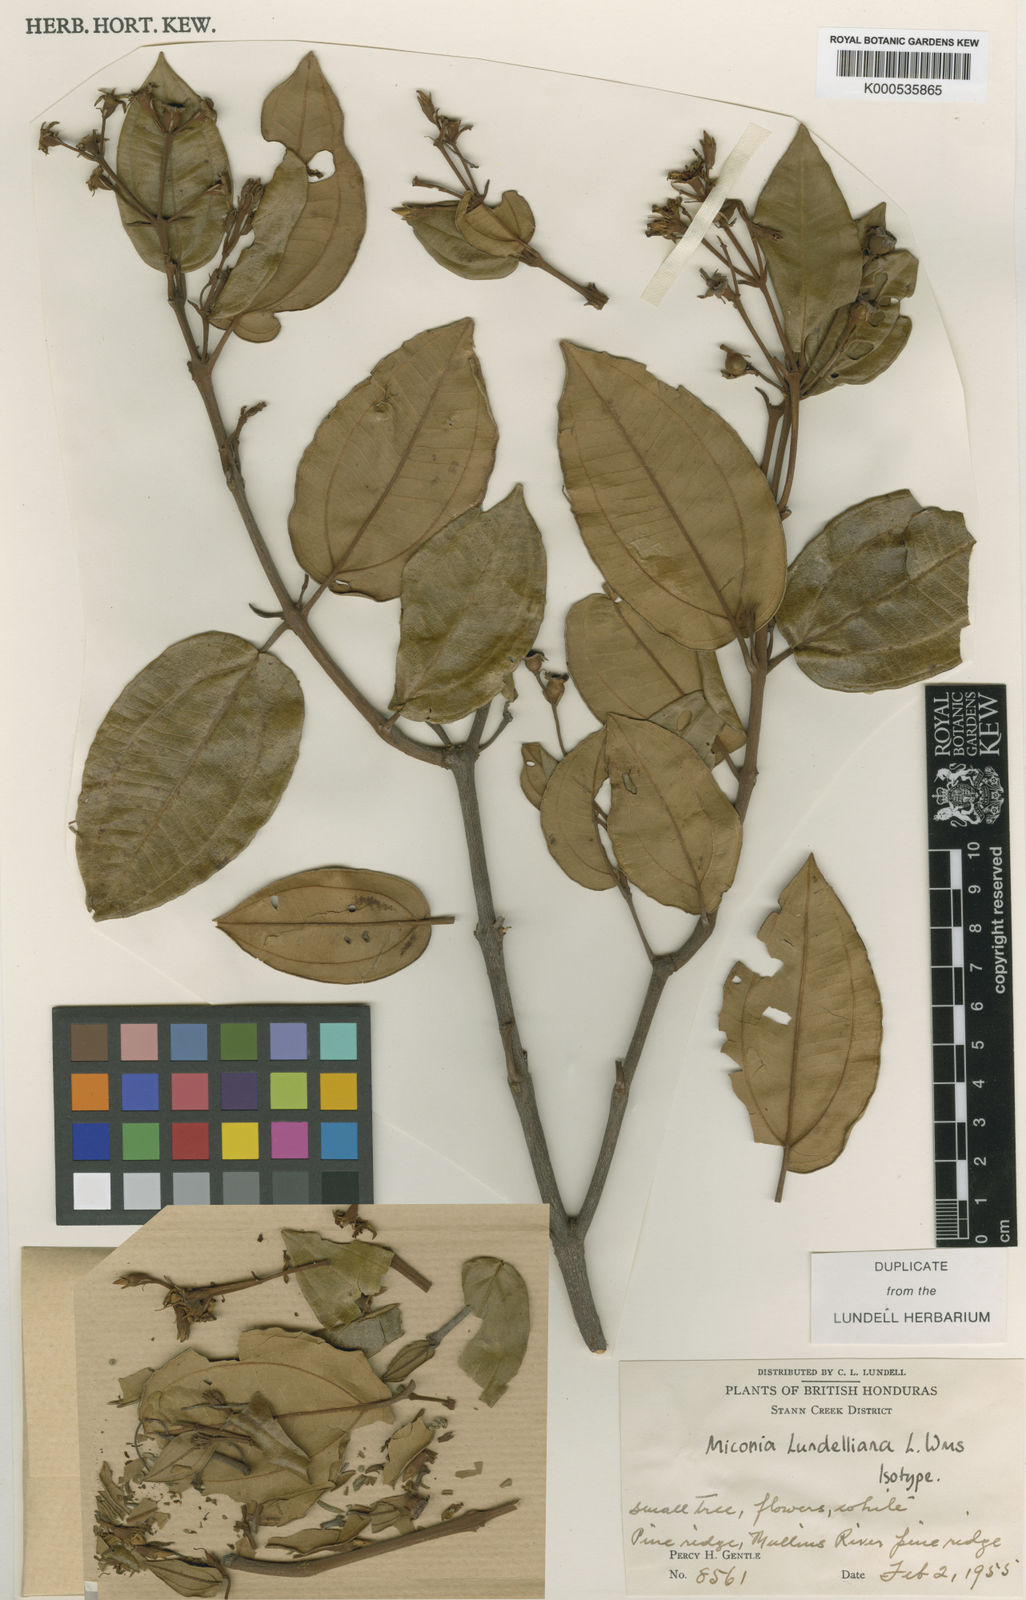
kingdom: Plantae
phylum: Tracheophyta
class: Magnoliopsida
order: Myrtales
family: Melastomataceae
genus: Miconia
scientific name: Miconia lundelliana
